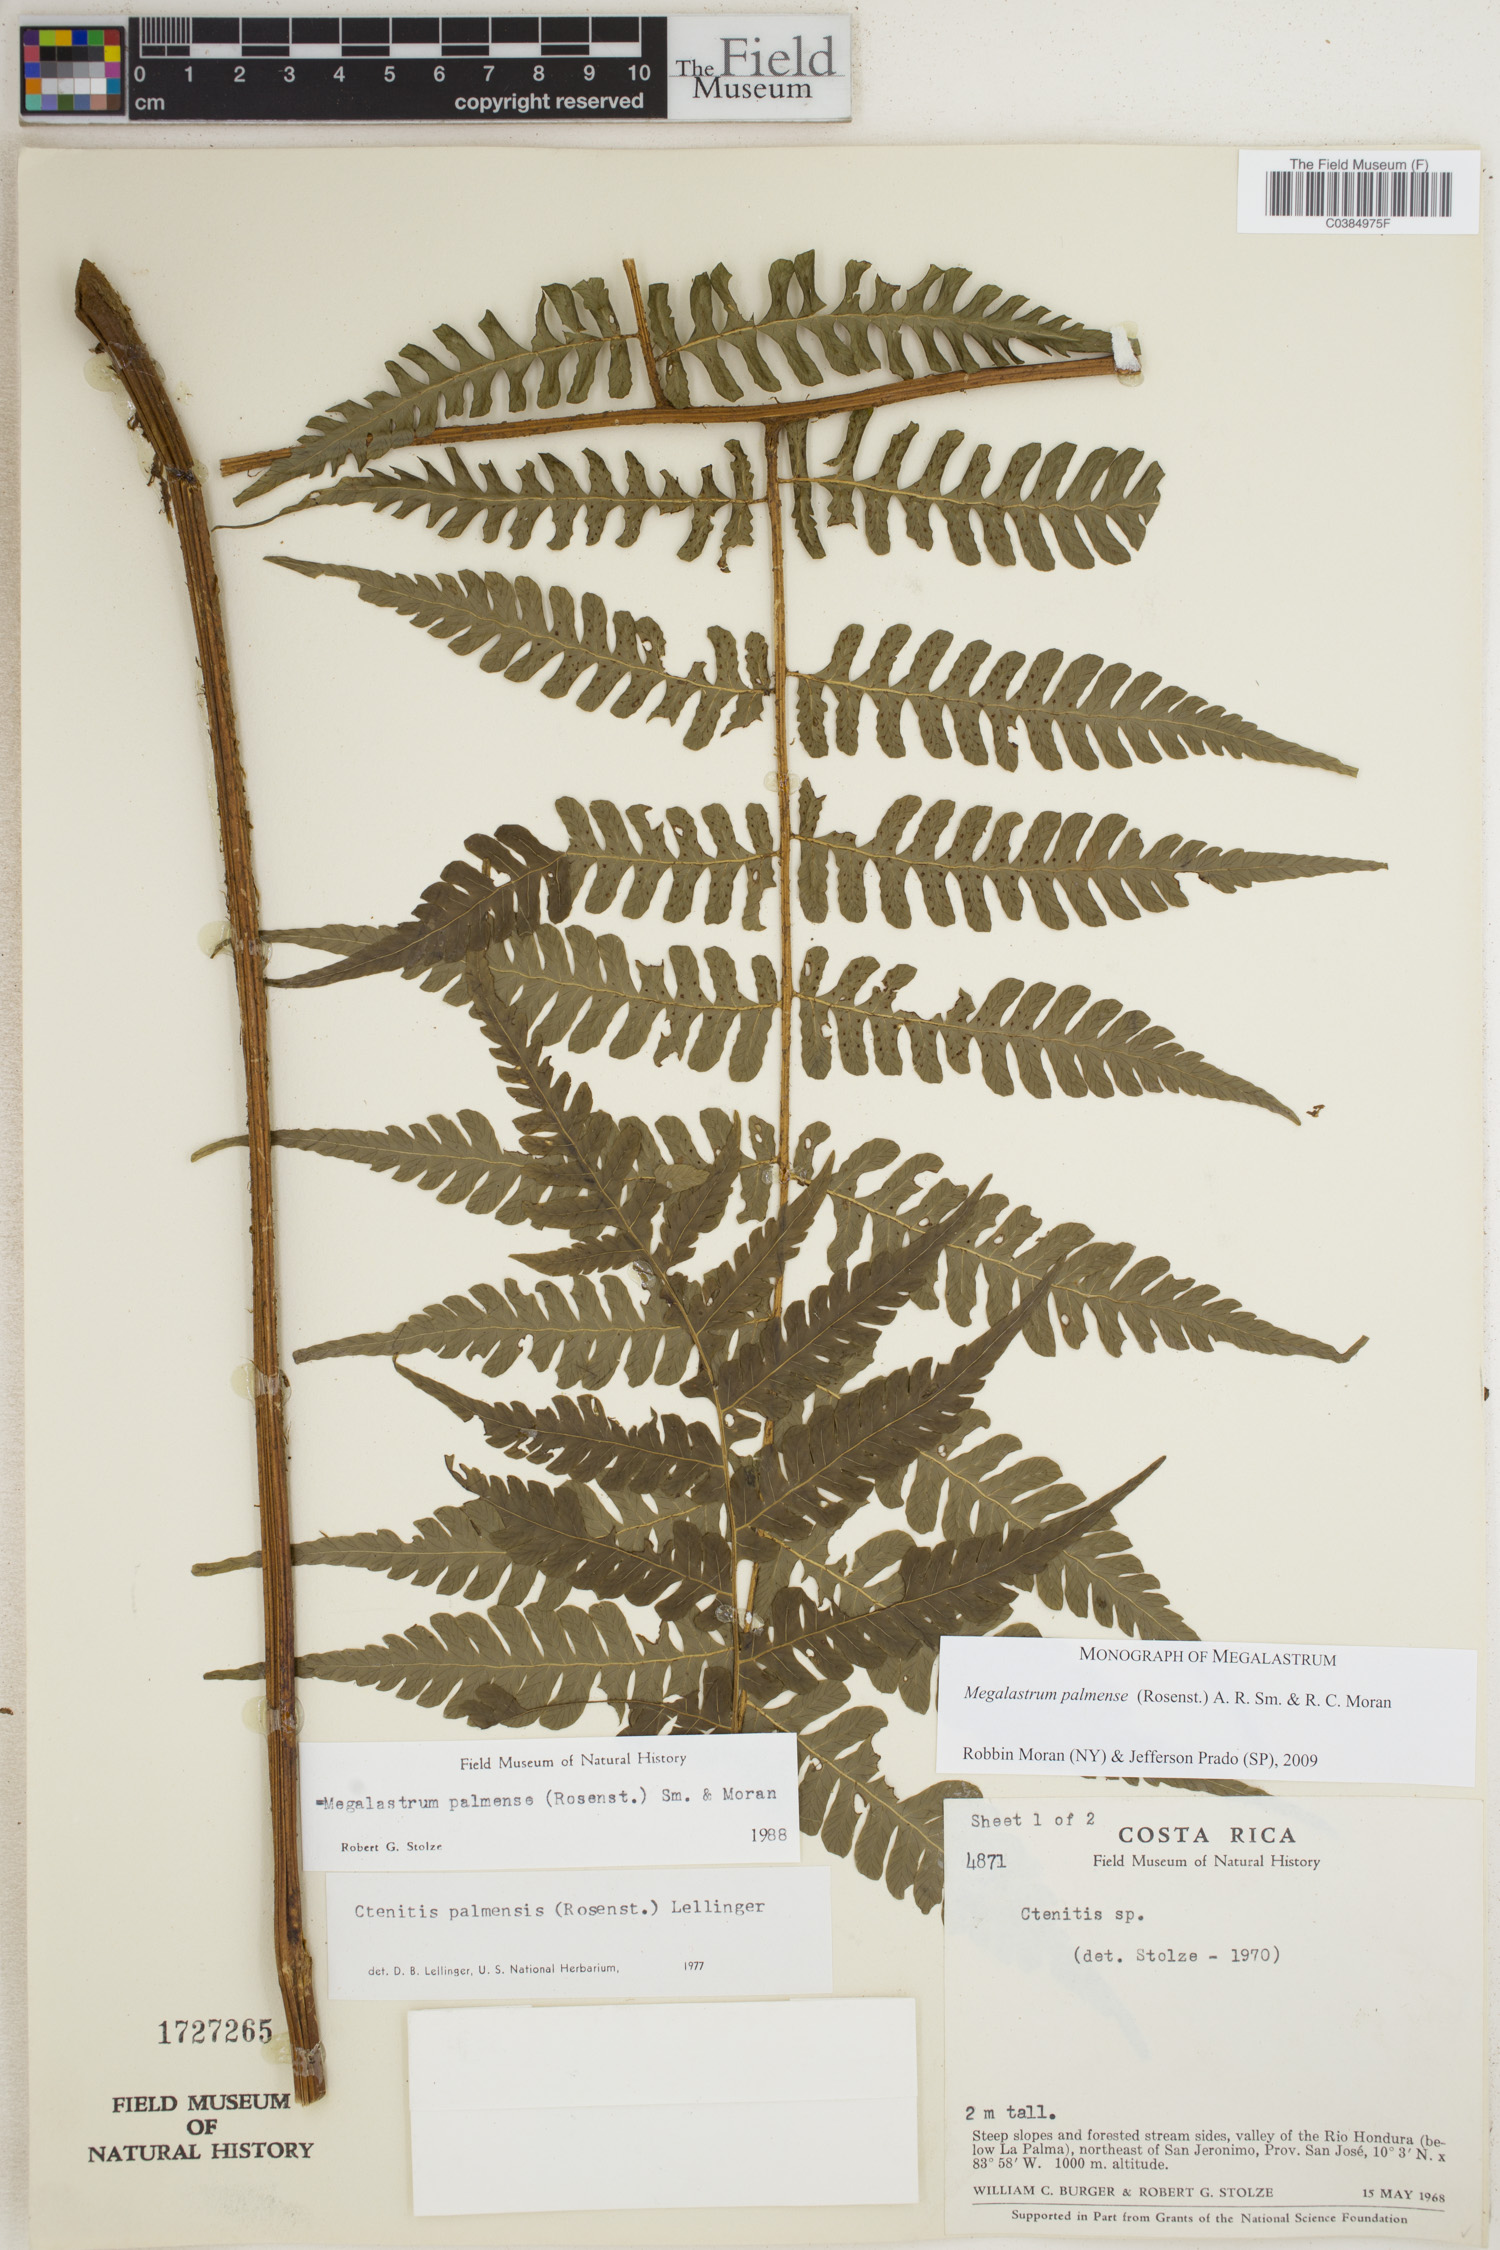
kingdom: Plantae
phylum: Tracheophyta
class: Polypodiopsida
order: Polypodiales
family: Dryopteridaceae
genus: Megalastrum
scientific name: Megalastrum palmense
